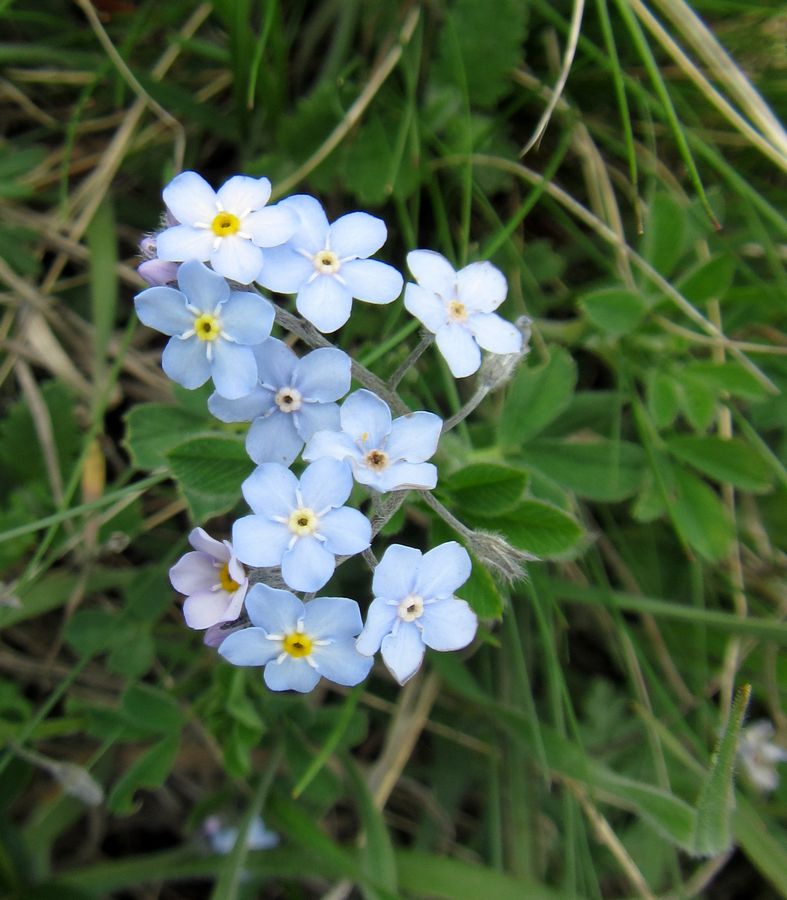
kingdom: Plantae
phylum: Tracheophyta
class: Magnoliopsida
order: Boraginales
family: Boraginaceae
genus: Myosotis
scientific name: Myosotis alpestris
